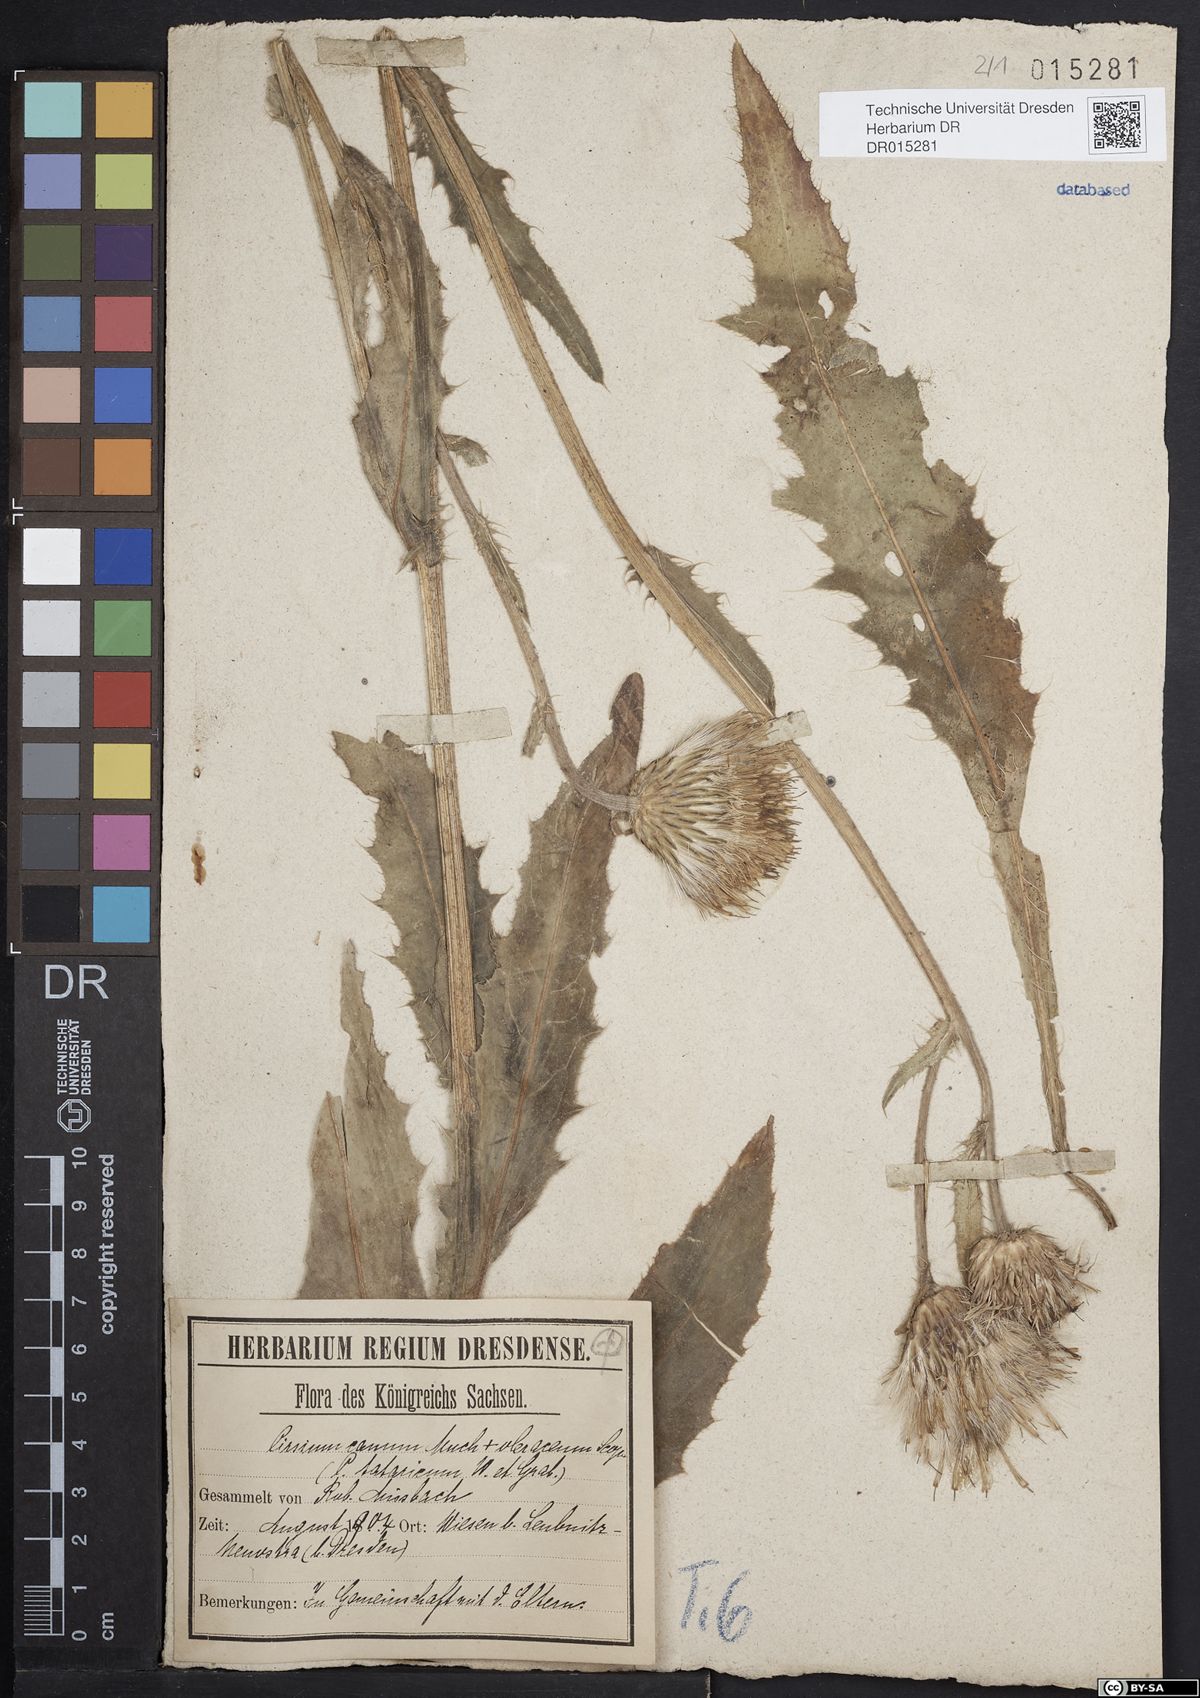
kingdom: Plantae
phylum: Tracheophyta
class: Magnoliopsida
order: Asterales
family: Asteraceae
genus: Cirsium
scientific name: Cirsium tataricum
